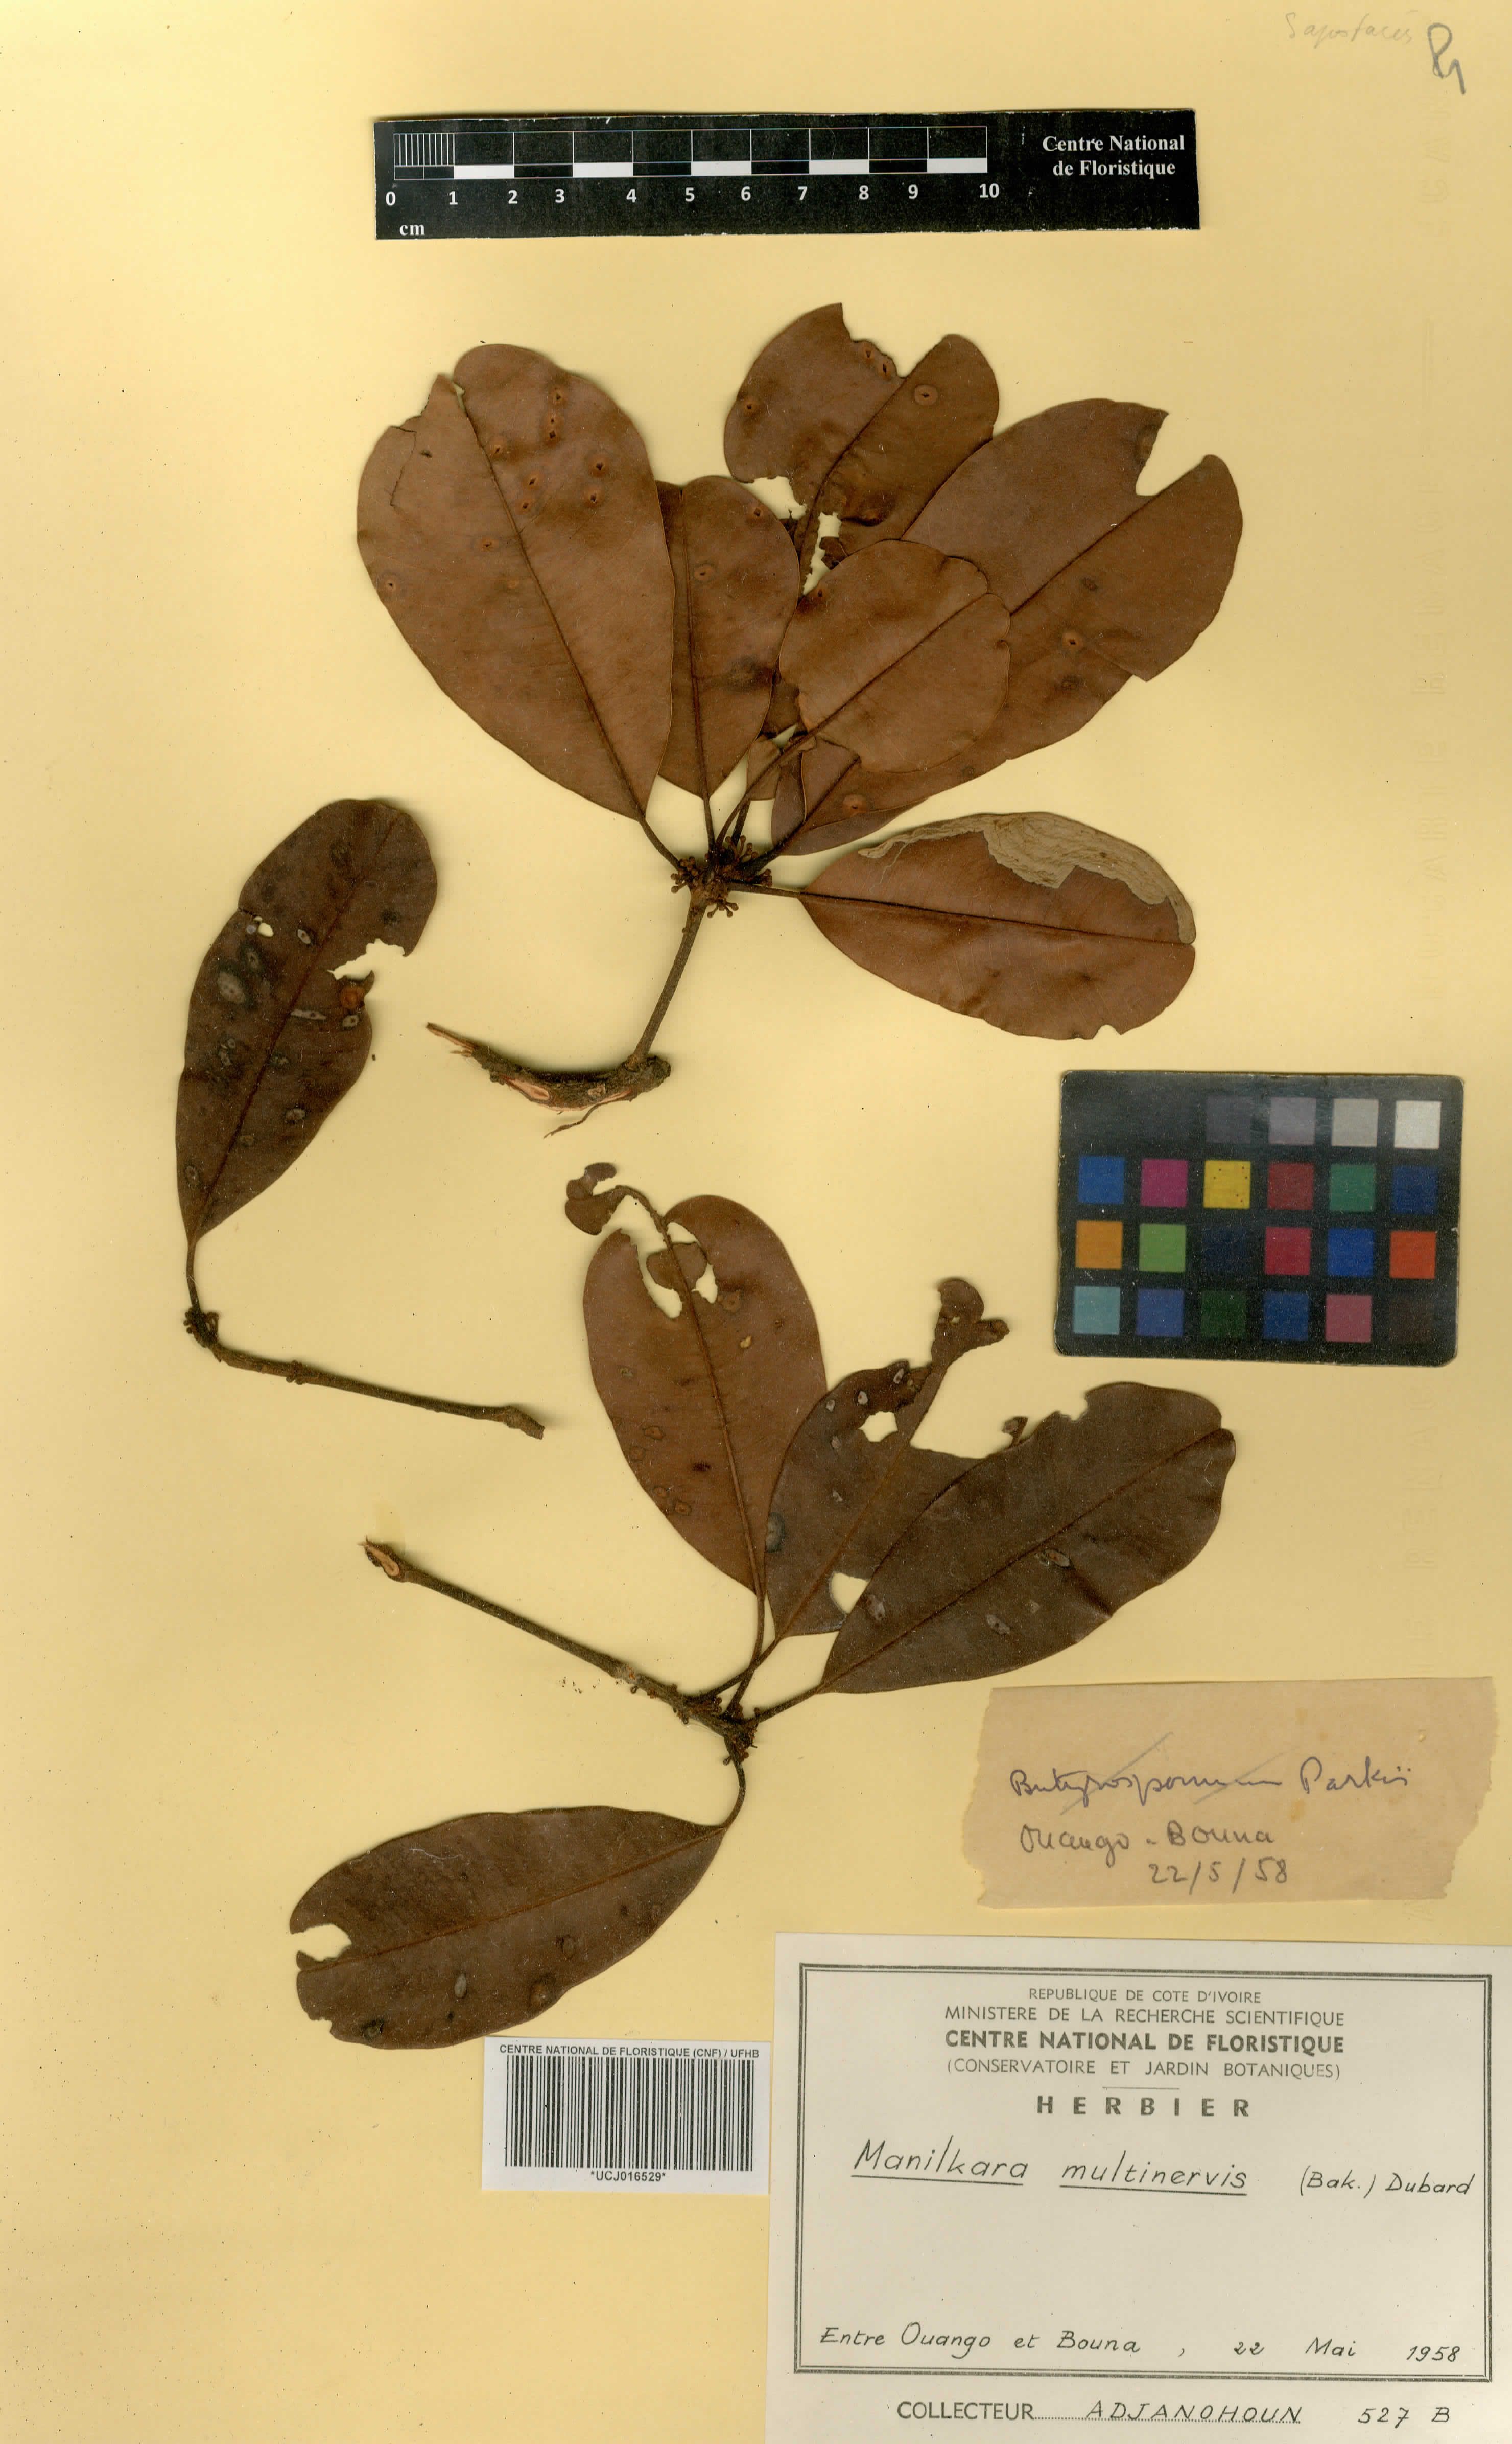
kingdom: Plantae
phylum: Tracheophyta
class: Magnoliopsida
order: Ericales
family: Sapotaceae
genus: Manilkara
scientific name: Manilkara obovata
